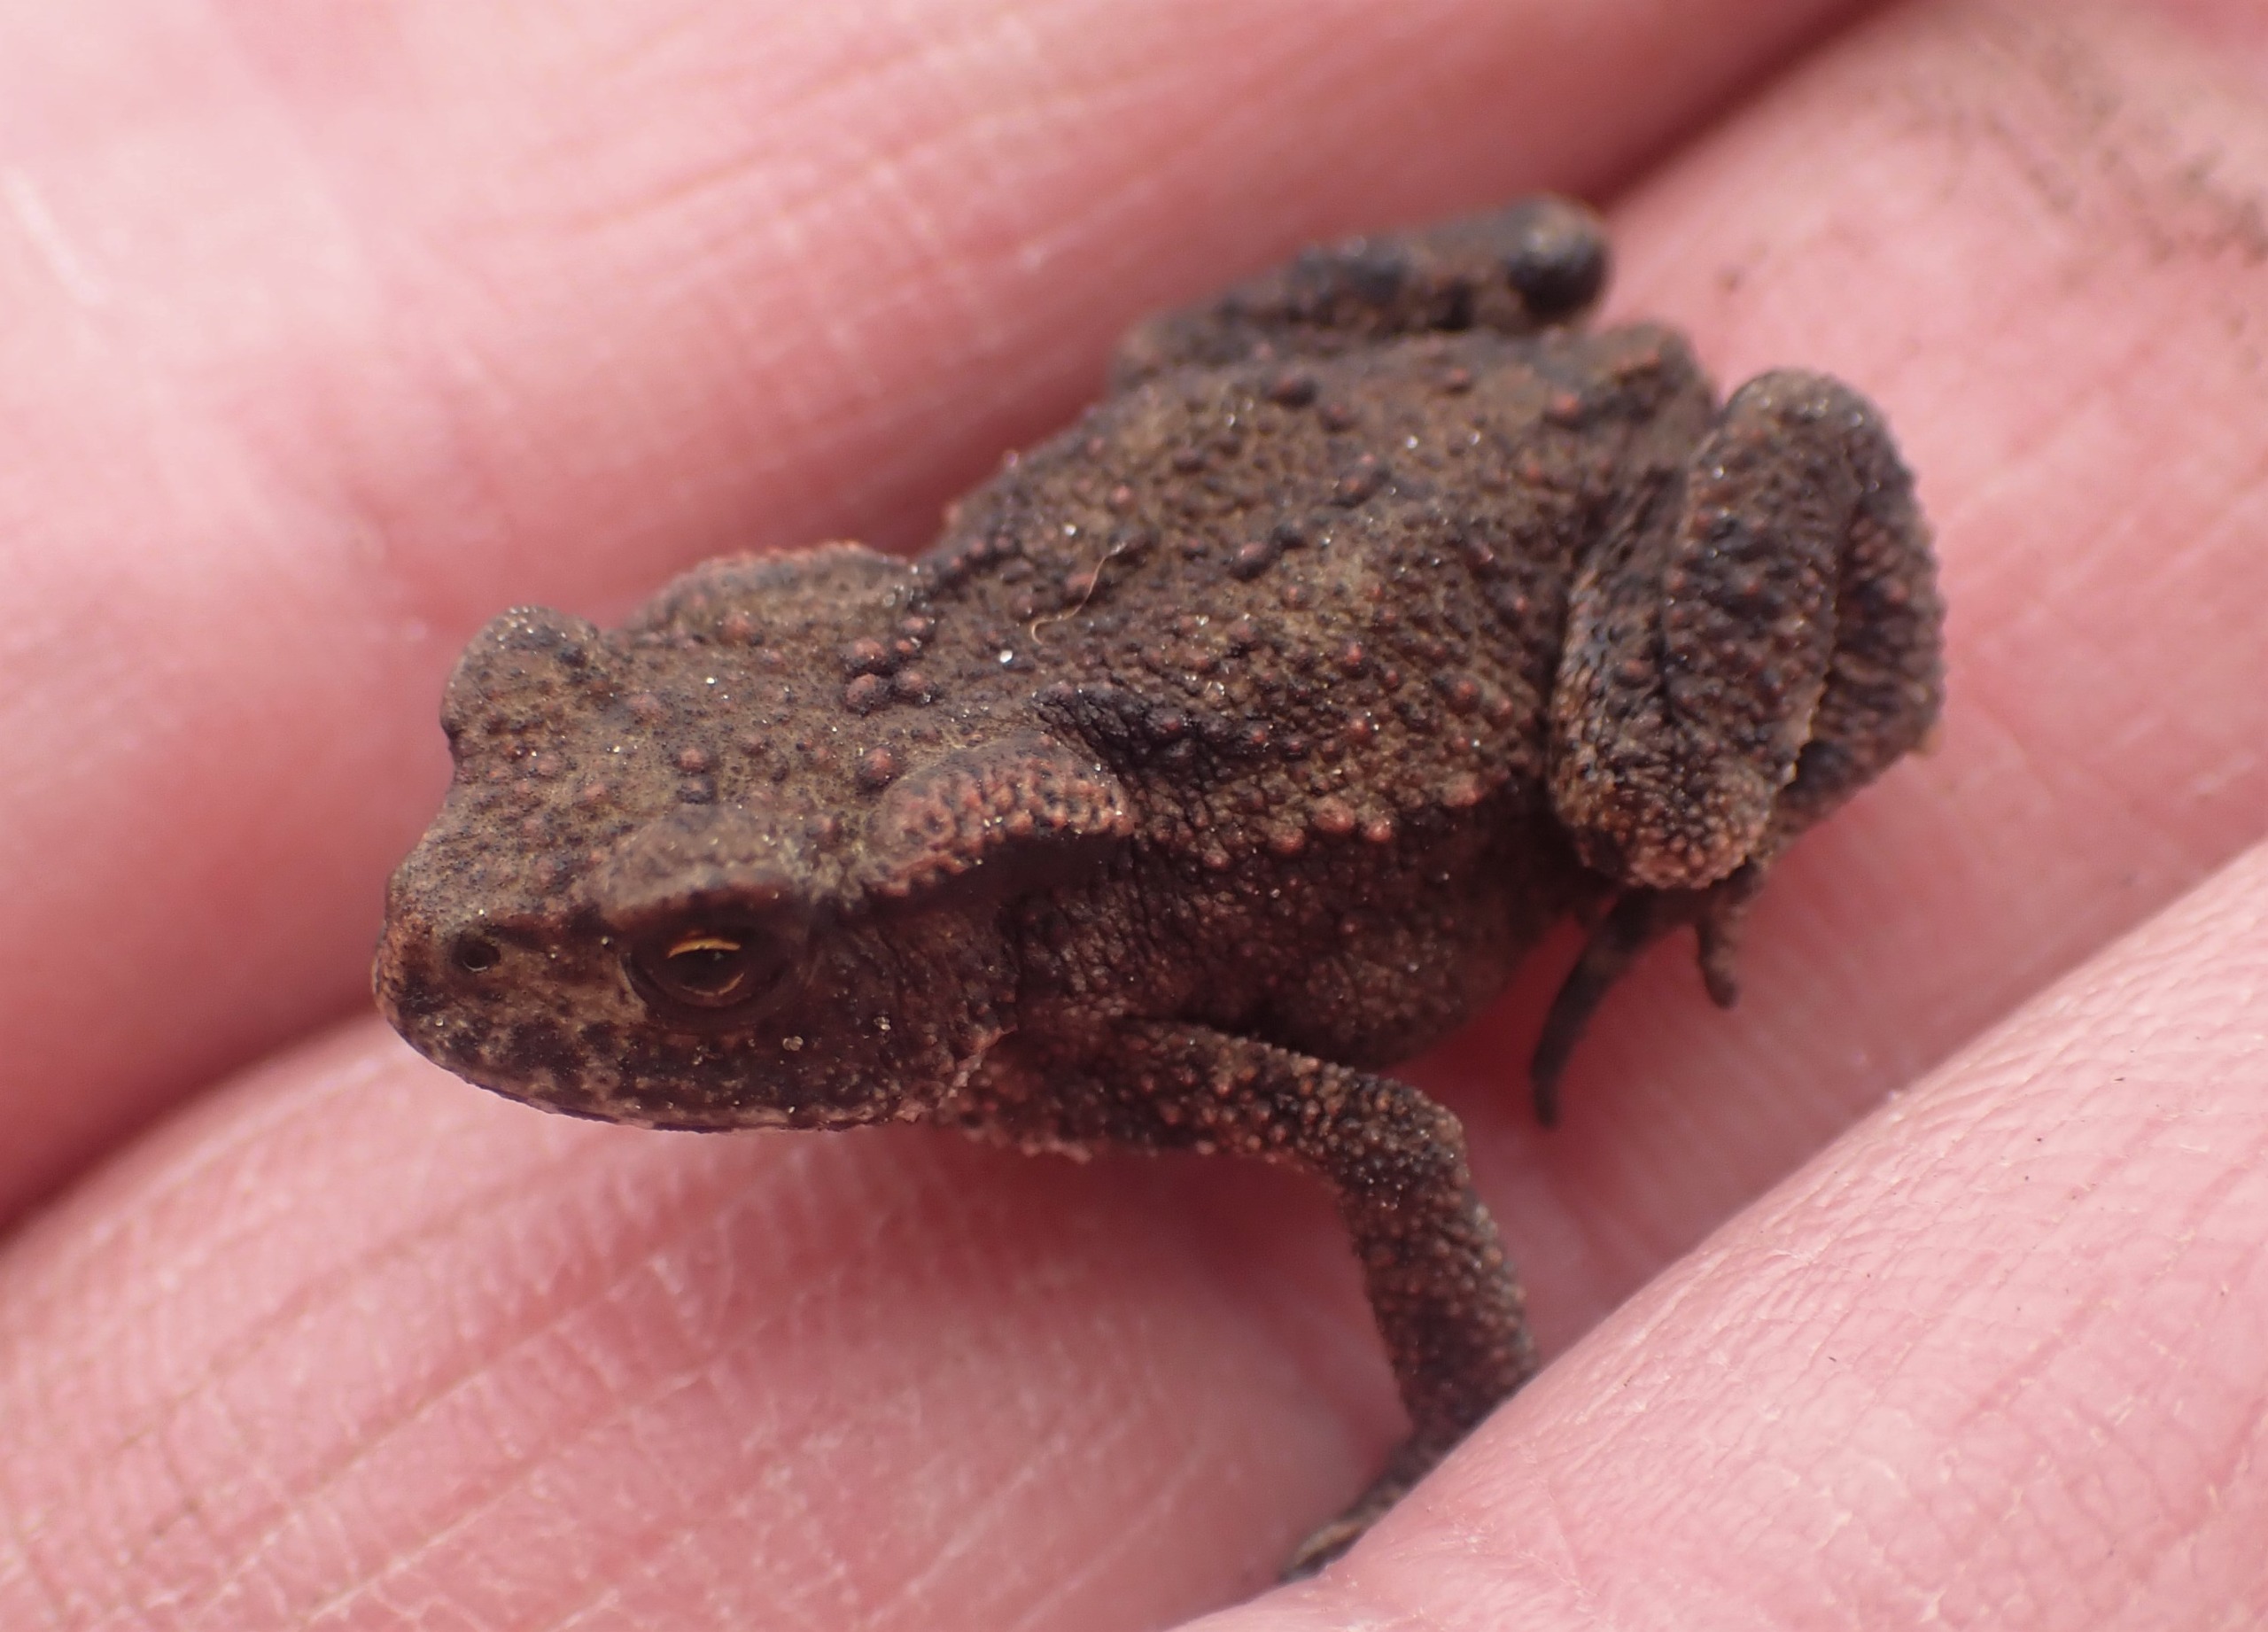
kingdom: Animalia
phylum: Chordata
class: Amphibia
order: Anura
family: Bufonidae
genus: Bufo
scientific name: Bufo bufo
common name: Skrubtudse
